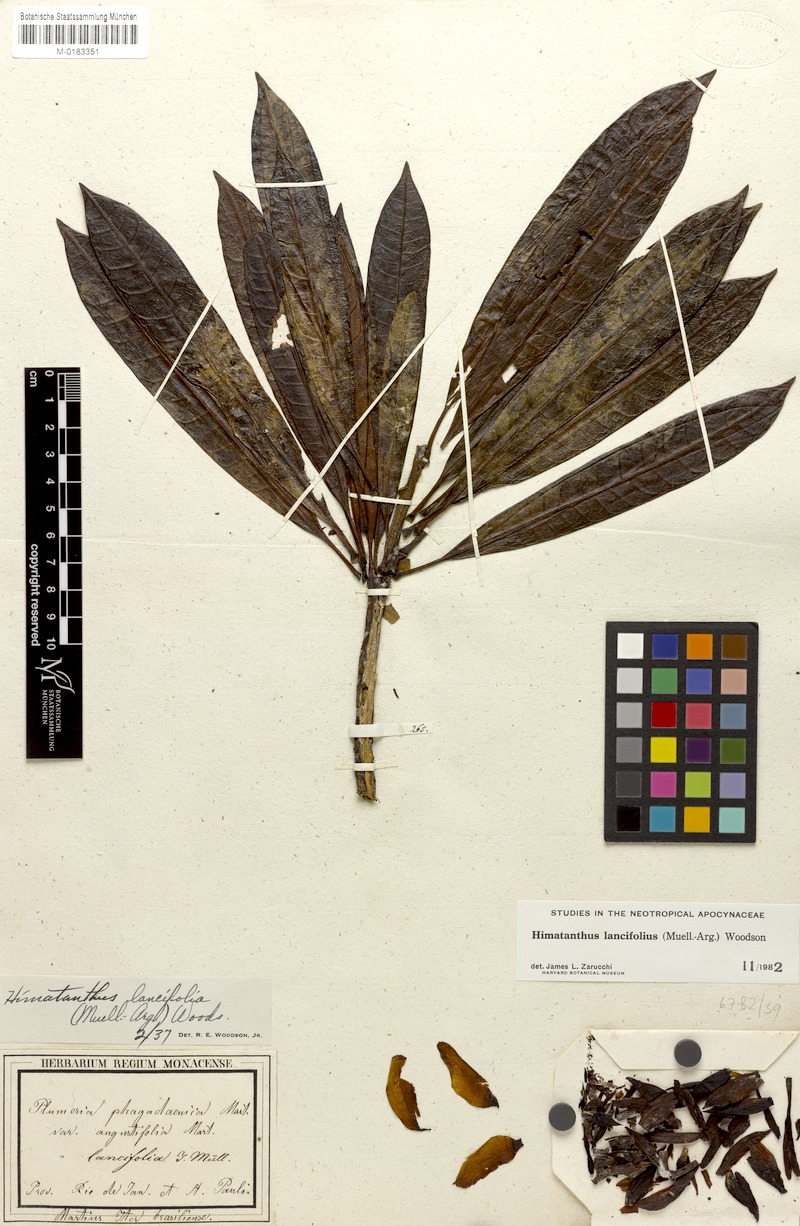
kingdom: Plantae
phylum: Tracheophyta
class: Magnoliopsida
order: Gentianales
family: Apocynaceae
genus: Himatanthus
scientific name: Himatanthus bracteatus
